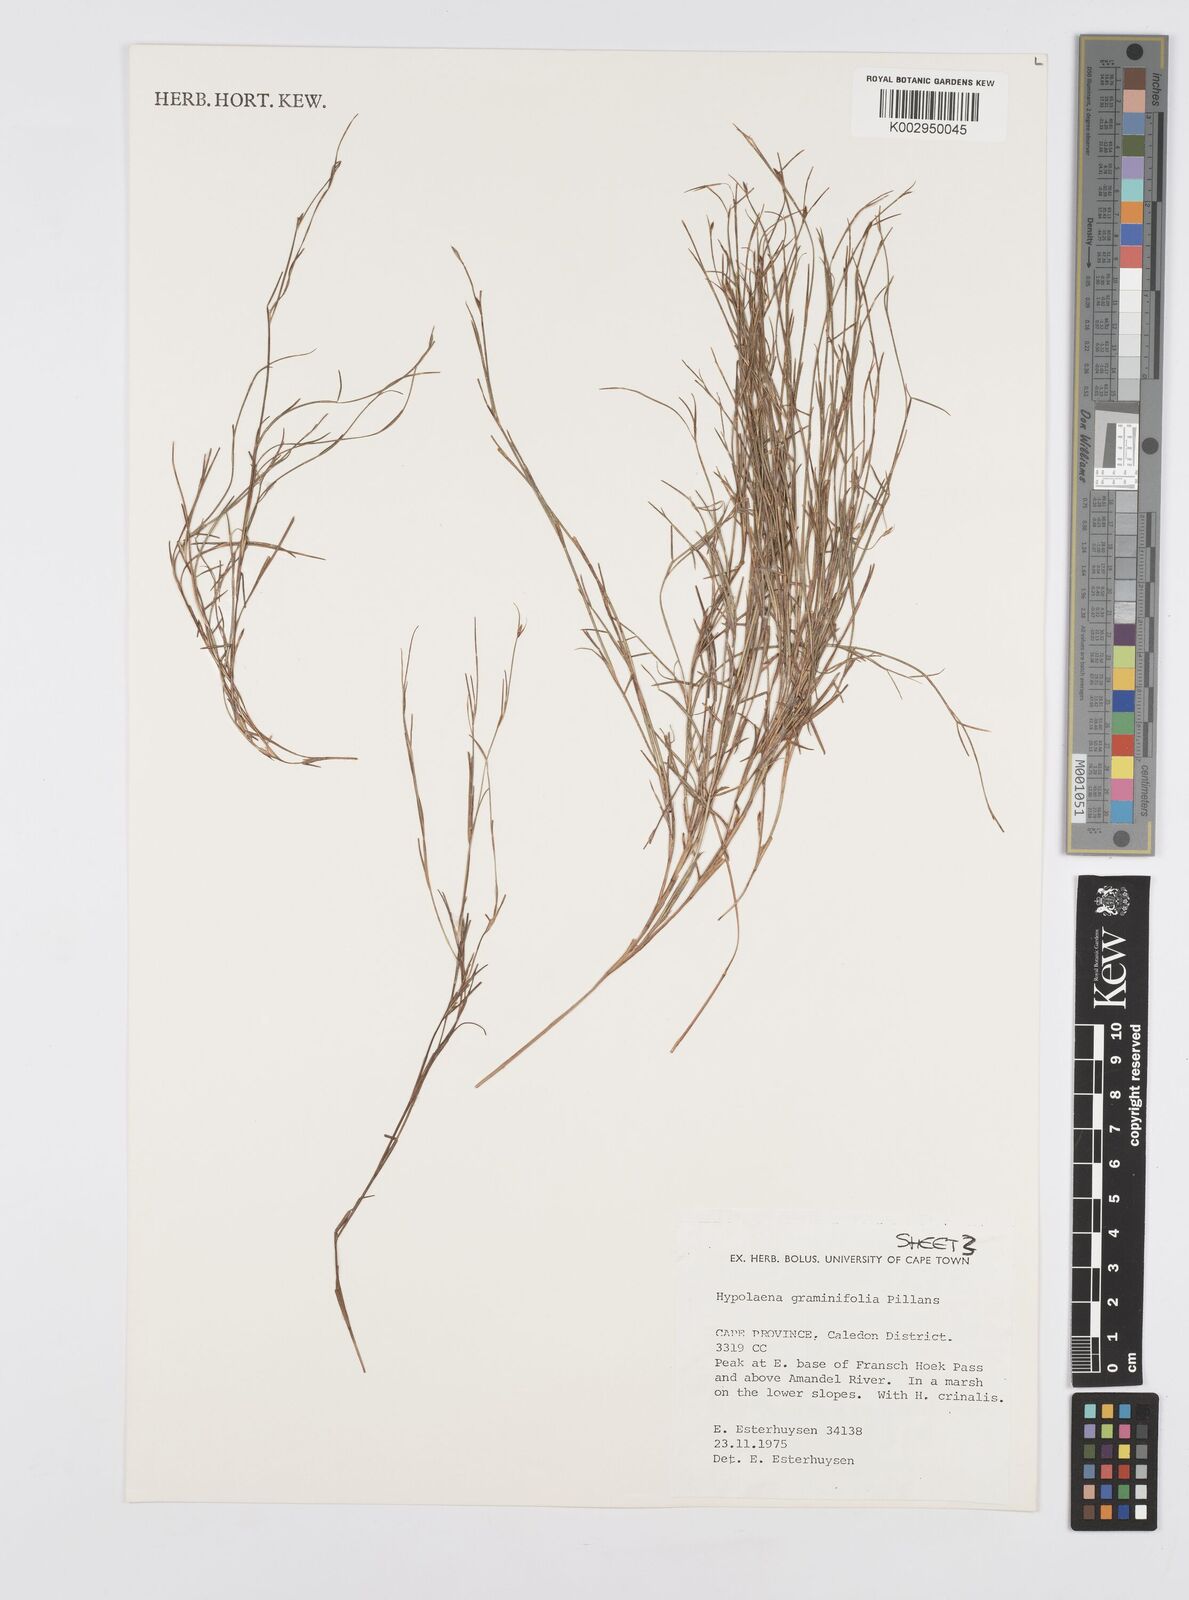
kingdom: Plantae
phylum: Tracheophyta
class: Liliopsida
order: Poales
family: Restionaceae
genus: Anthochortus
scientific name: Anthochortus graminifolius
